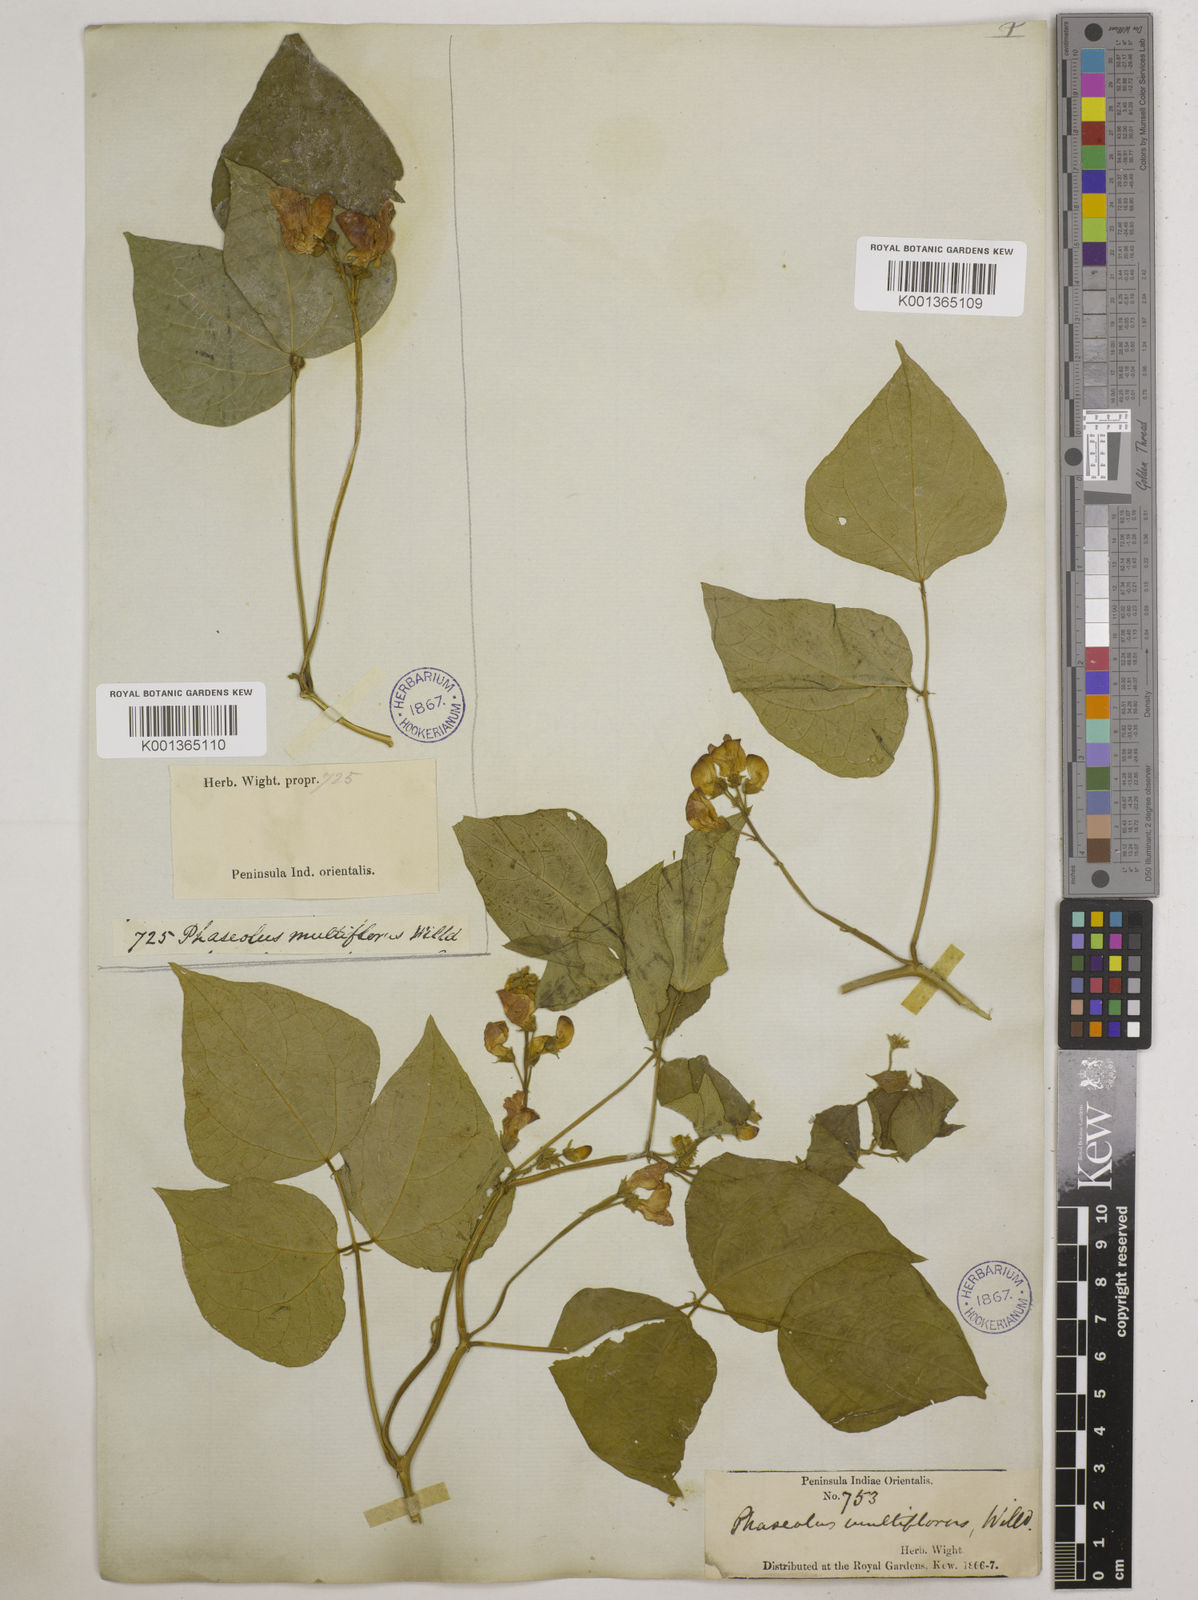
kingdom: Plantae
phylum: Tracheophyta
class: Magnoliopsida
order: Fabales
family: Fabaceae
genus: Phaseolus
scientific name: Phaseolus vulgaris
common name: Bean
